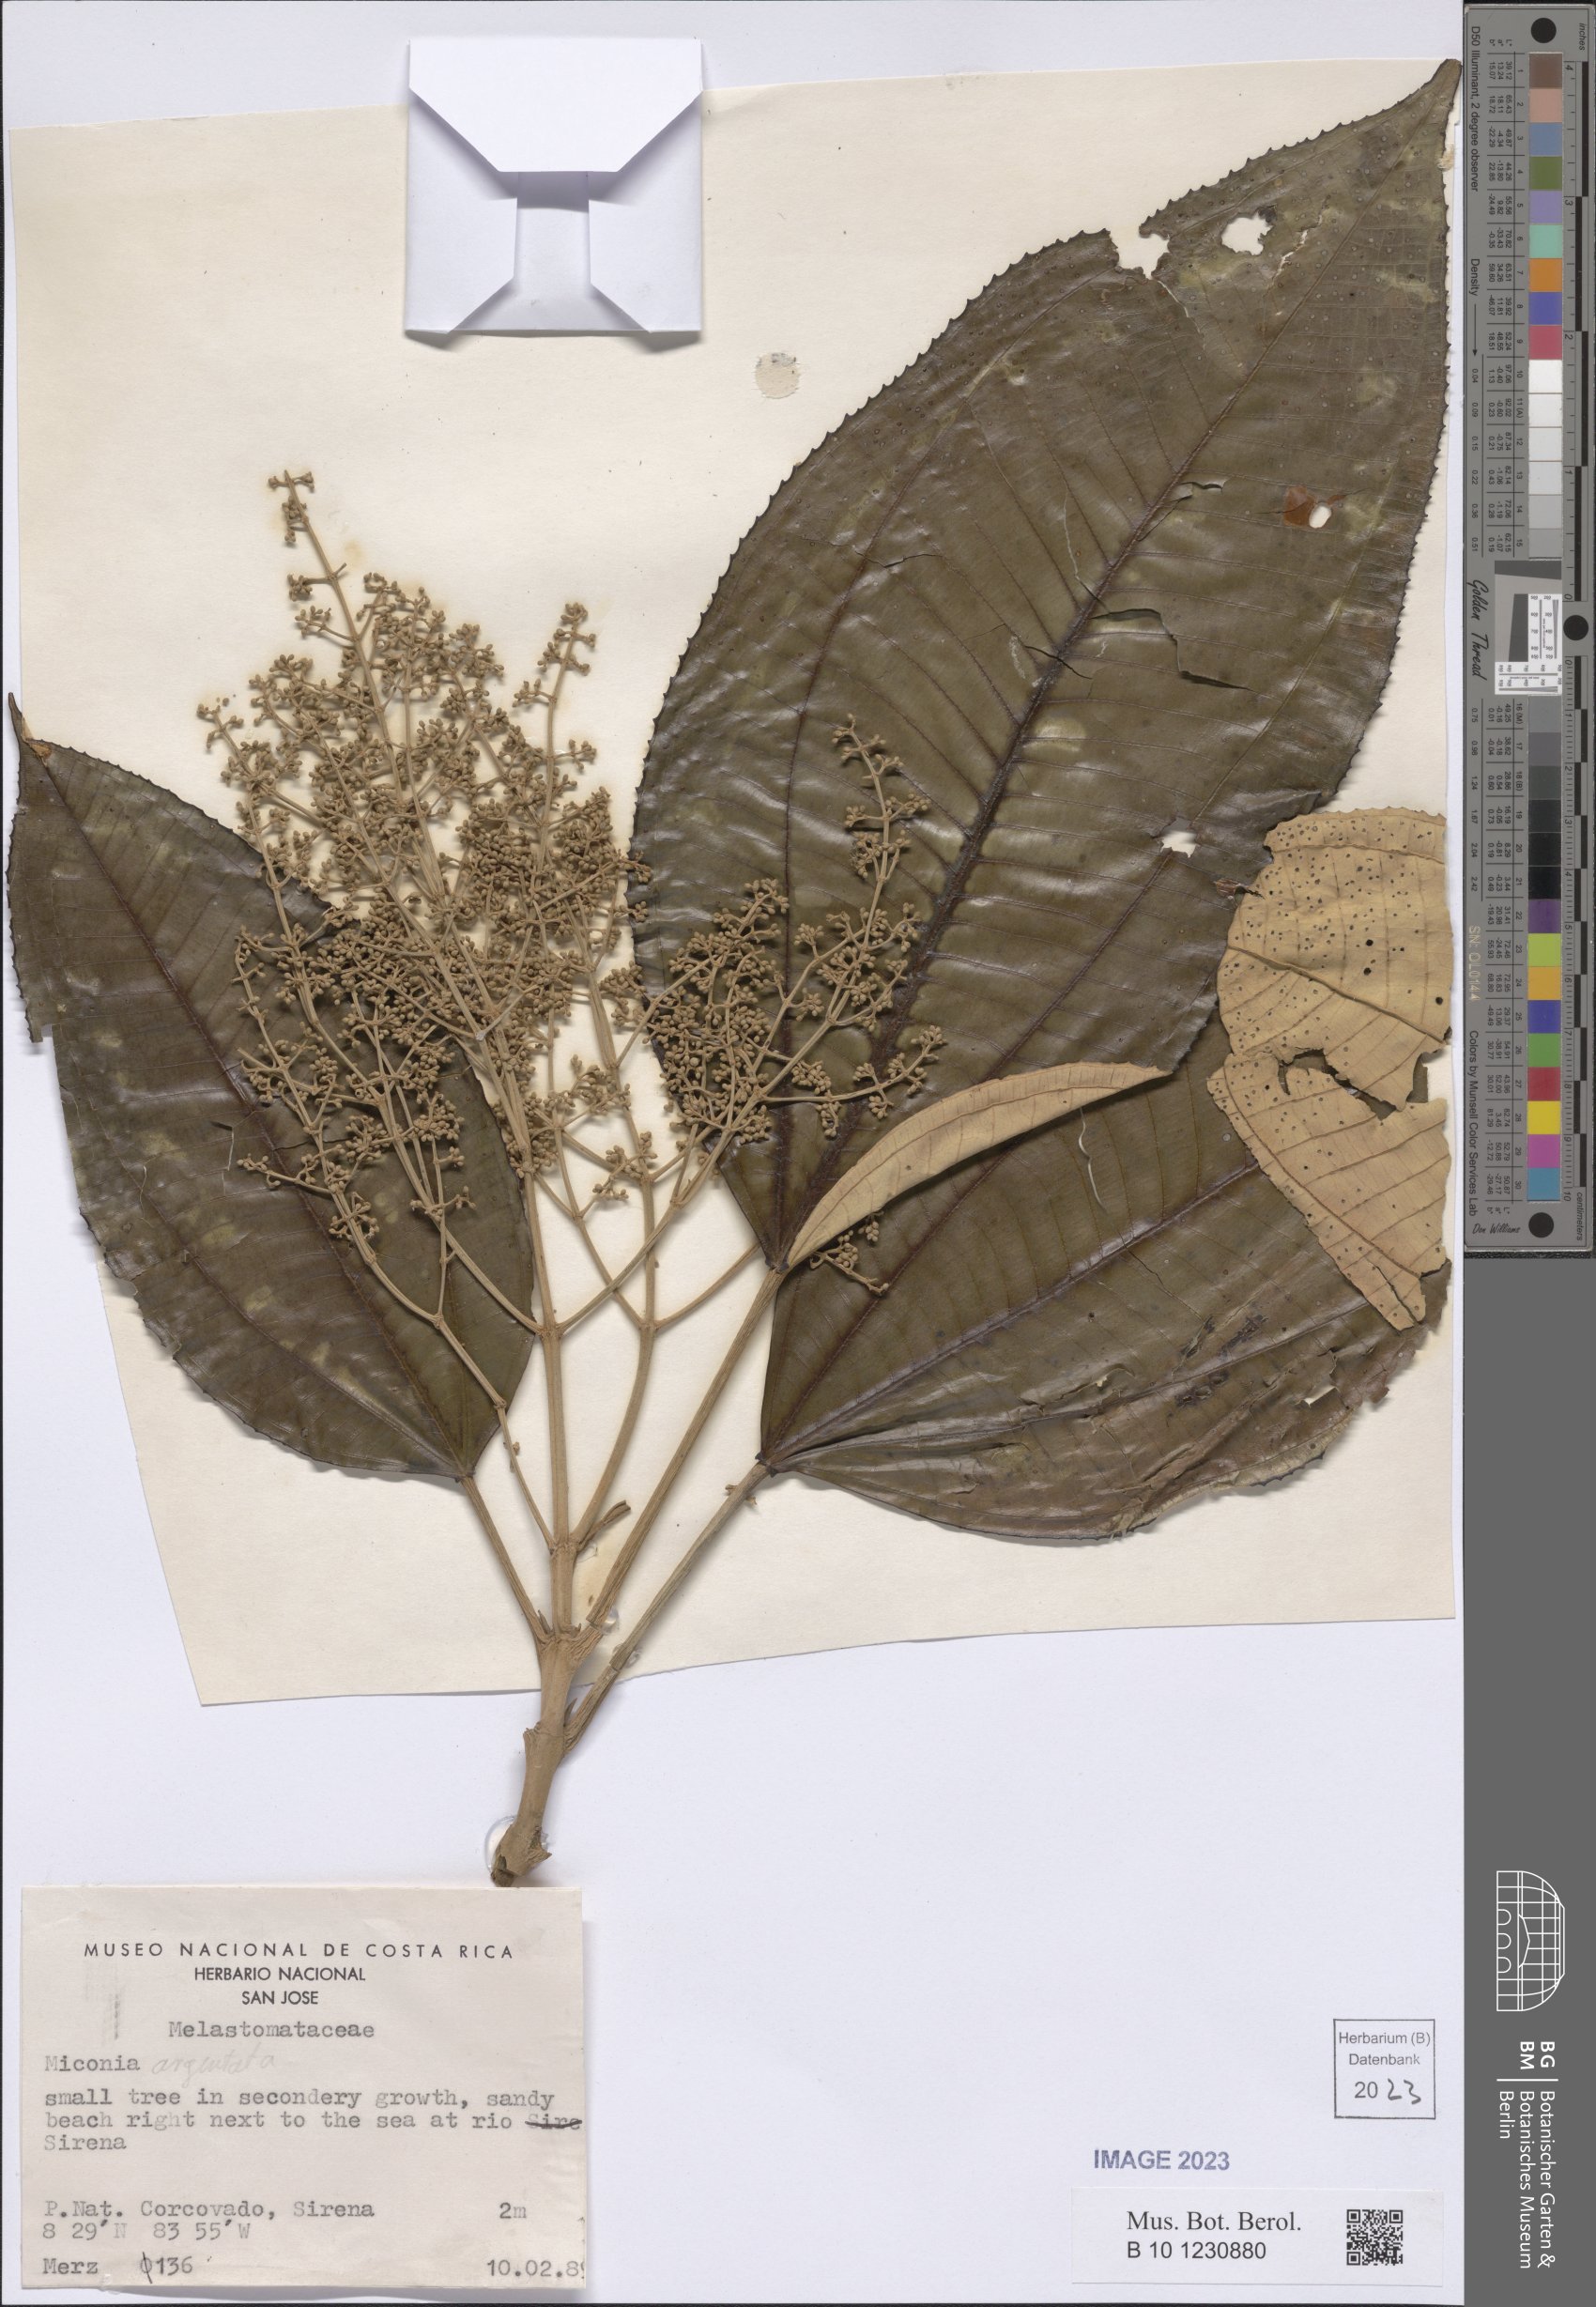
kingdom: Plantae
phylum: Tracheophyta
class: Magnoliopsida
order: Myrtales
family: Melastomataceae
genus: Miconia
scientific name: Miconia argentea
